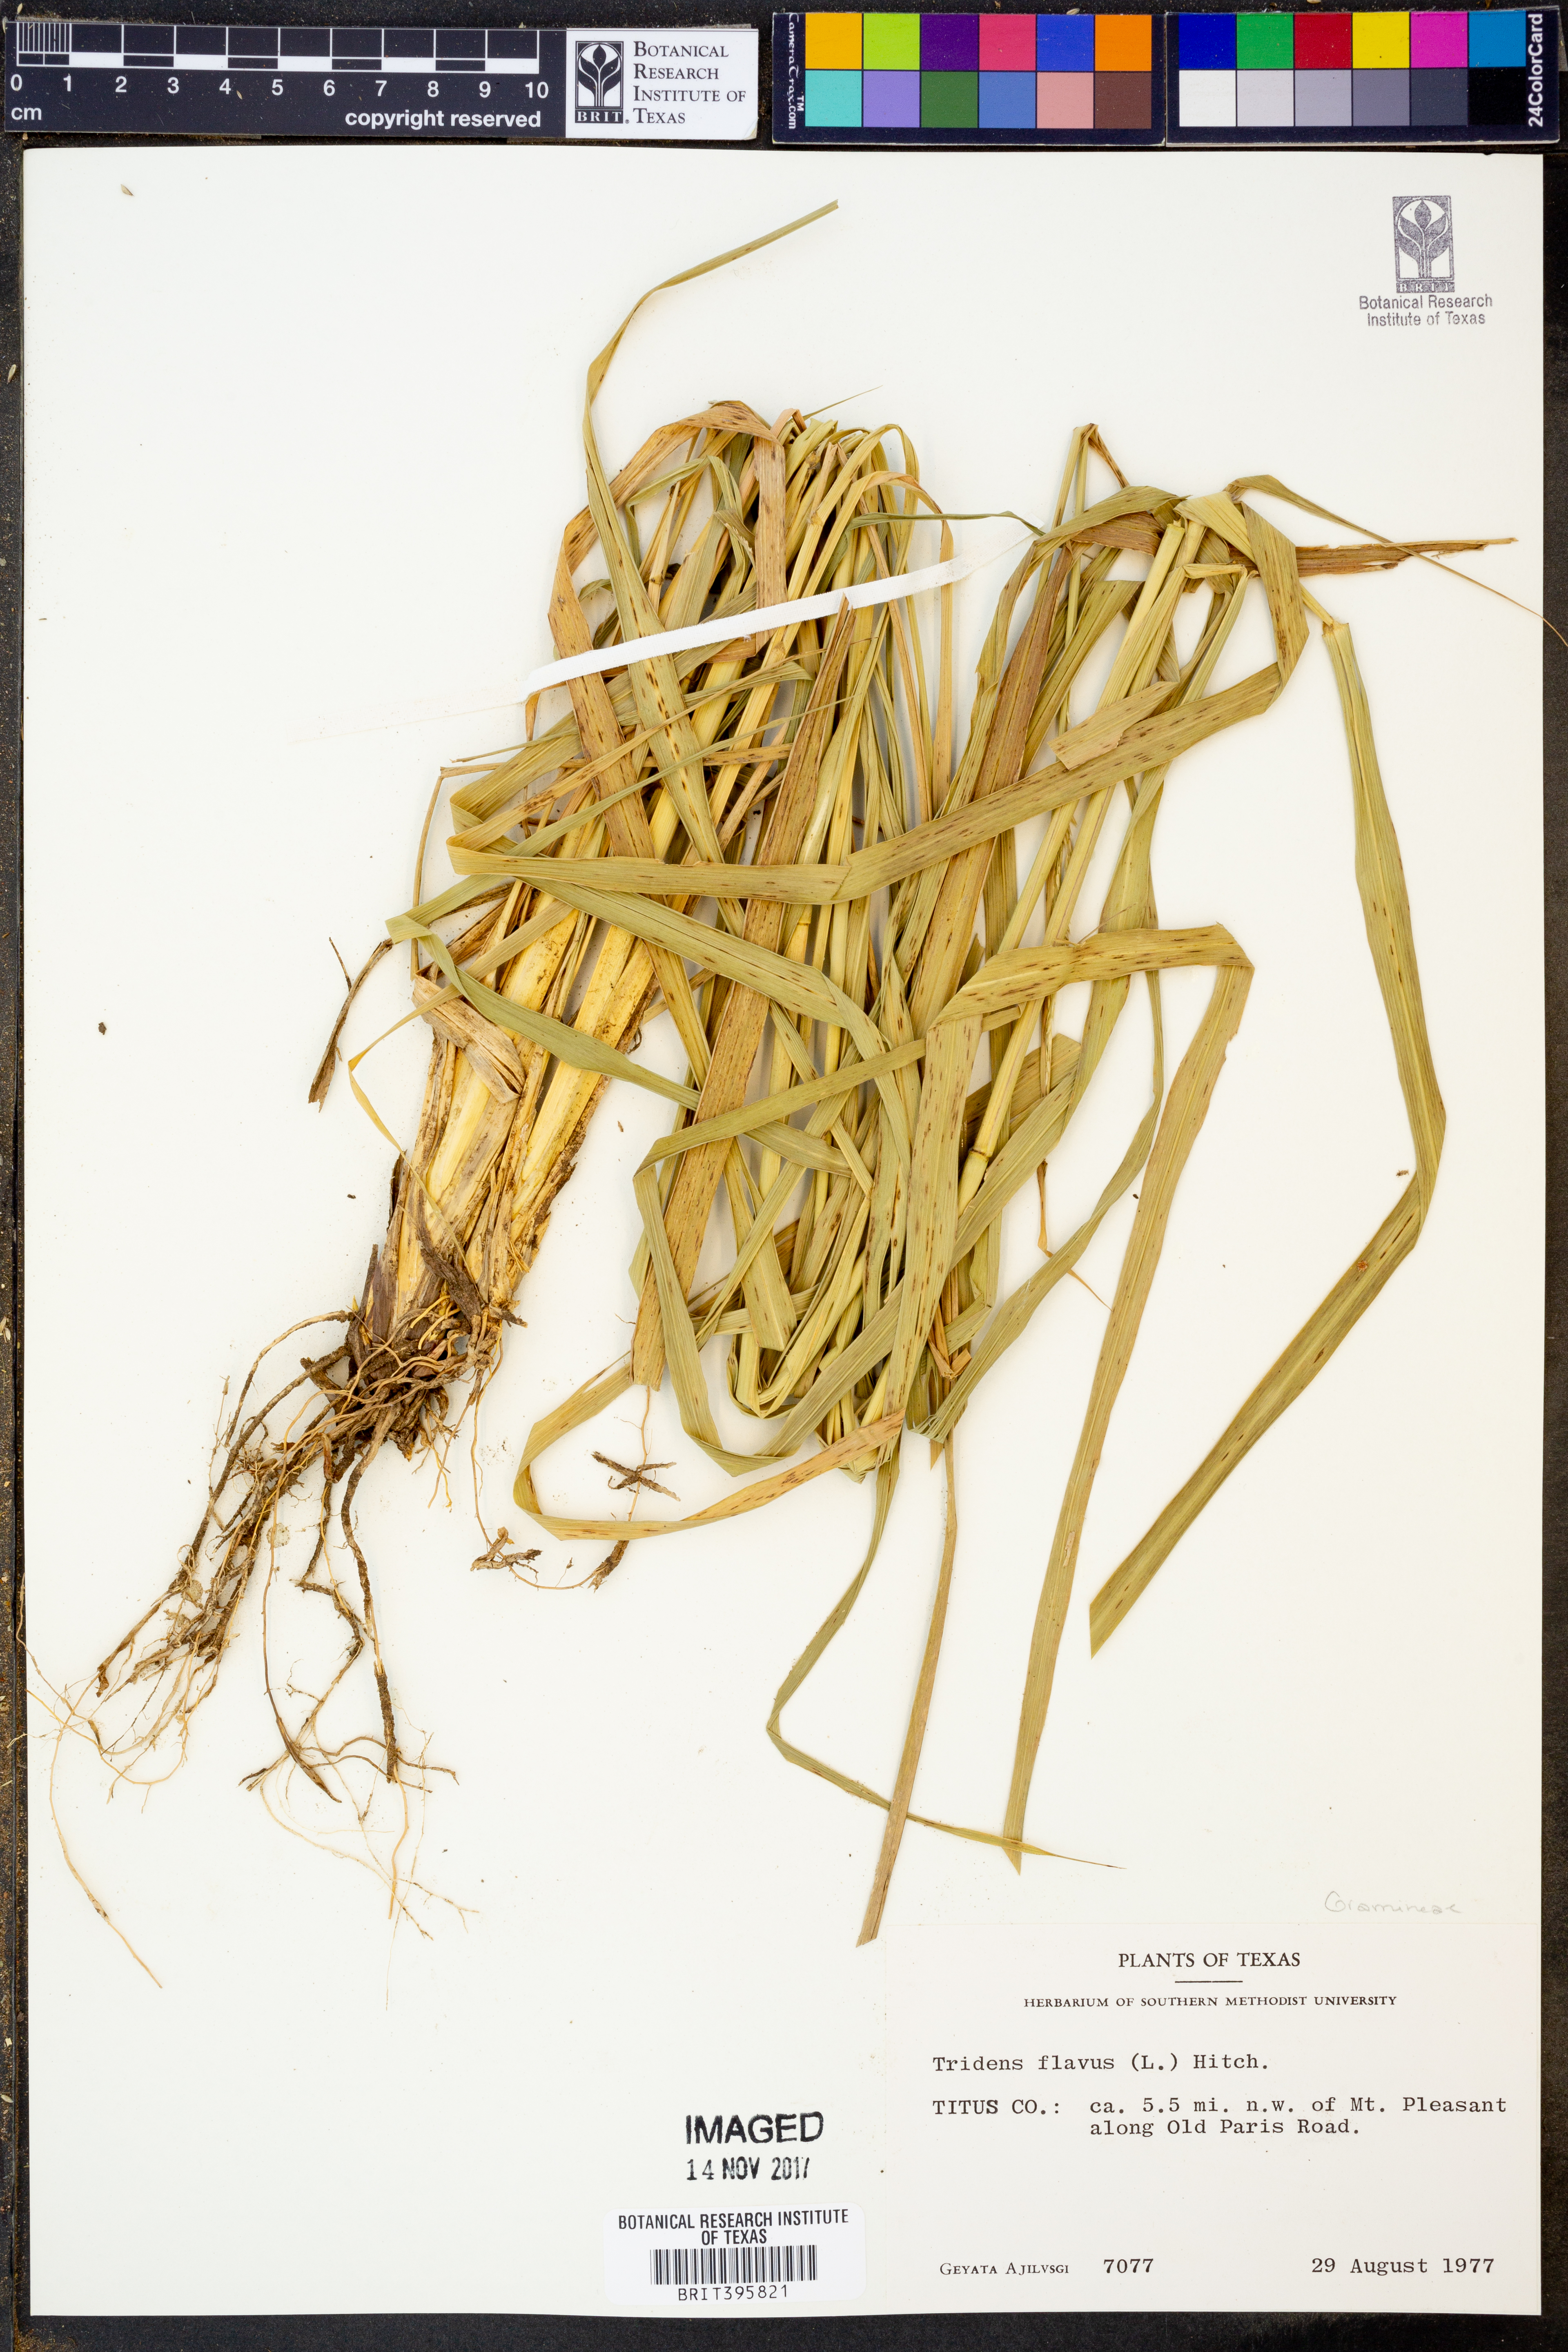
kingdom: Plantae
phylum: Tracheophyta
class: Liliopsida
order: Poales
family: Poaceae
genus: Tridens
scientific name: Tridens flavus
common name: Purpletop
